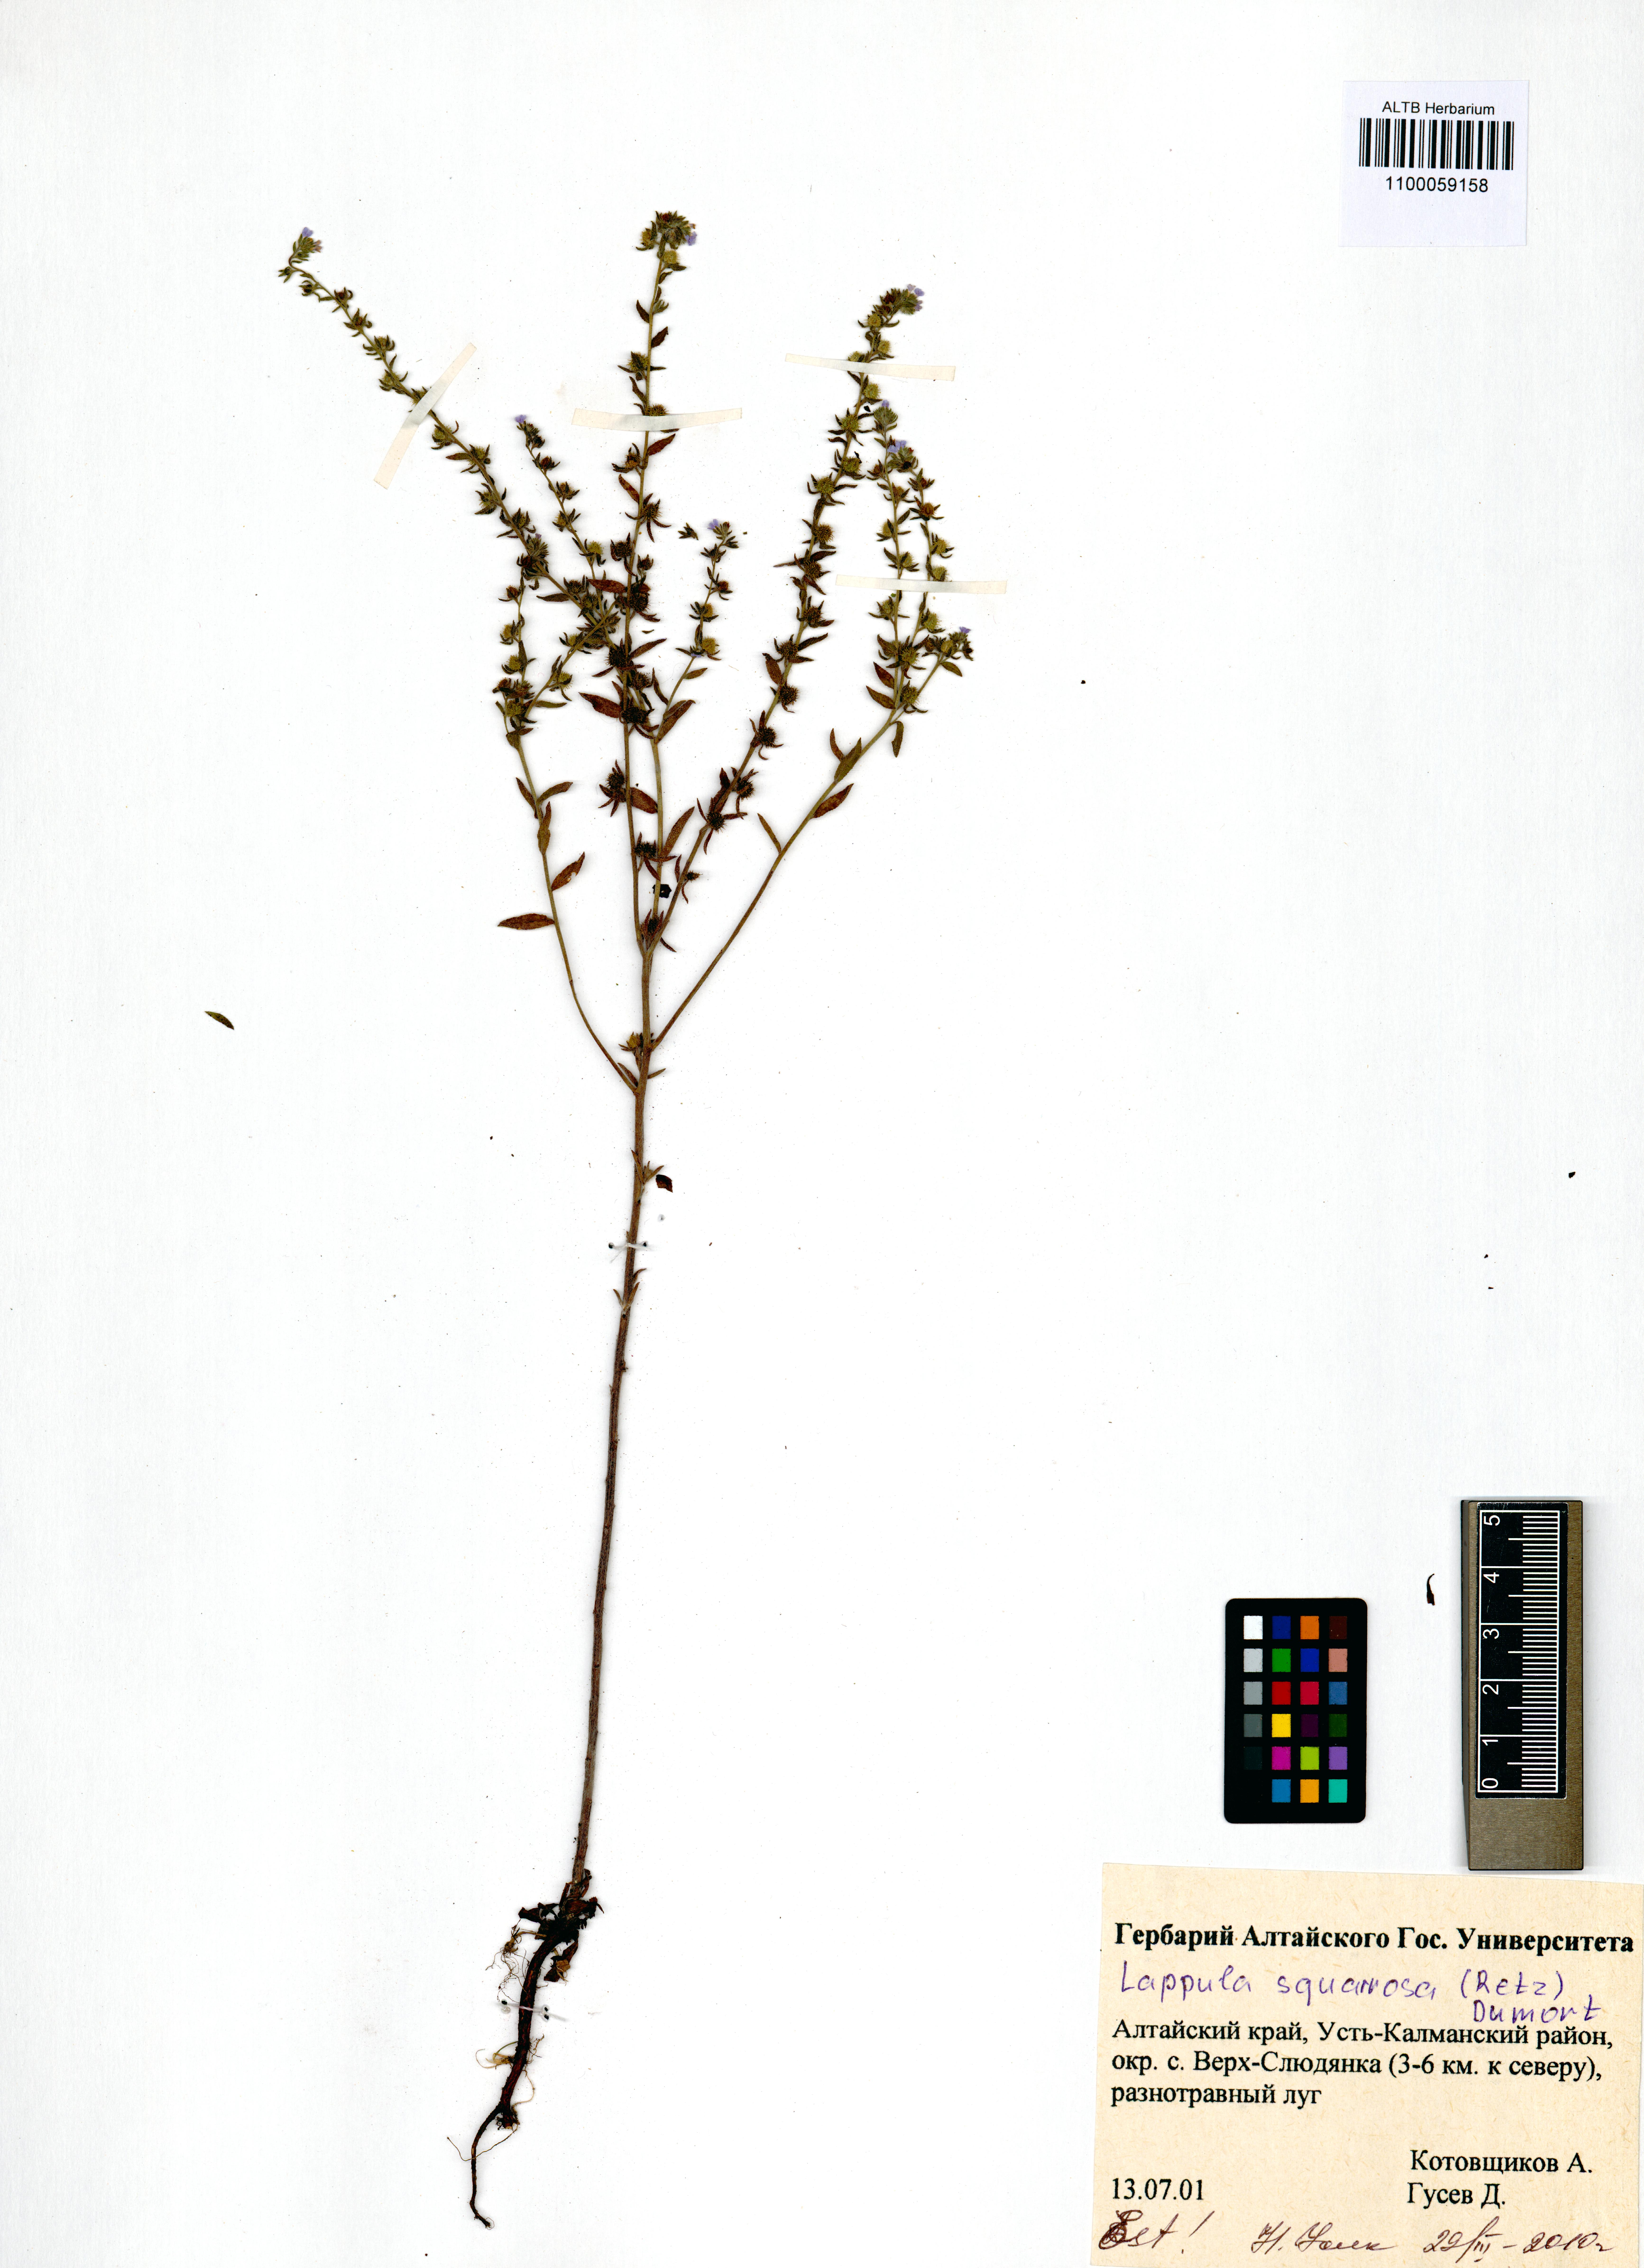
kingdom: Plantae
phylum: Tracheophyta
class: Magnoliopsida
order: Boraginales
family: Boraginaceae
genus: Lappula
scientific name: Lappula squarrosa
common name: European stickseed
